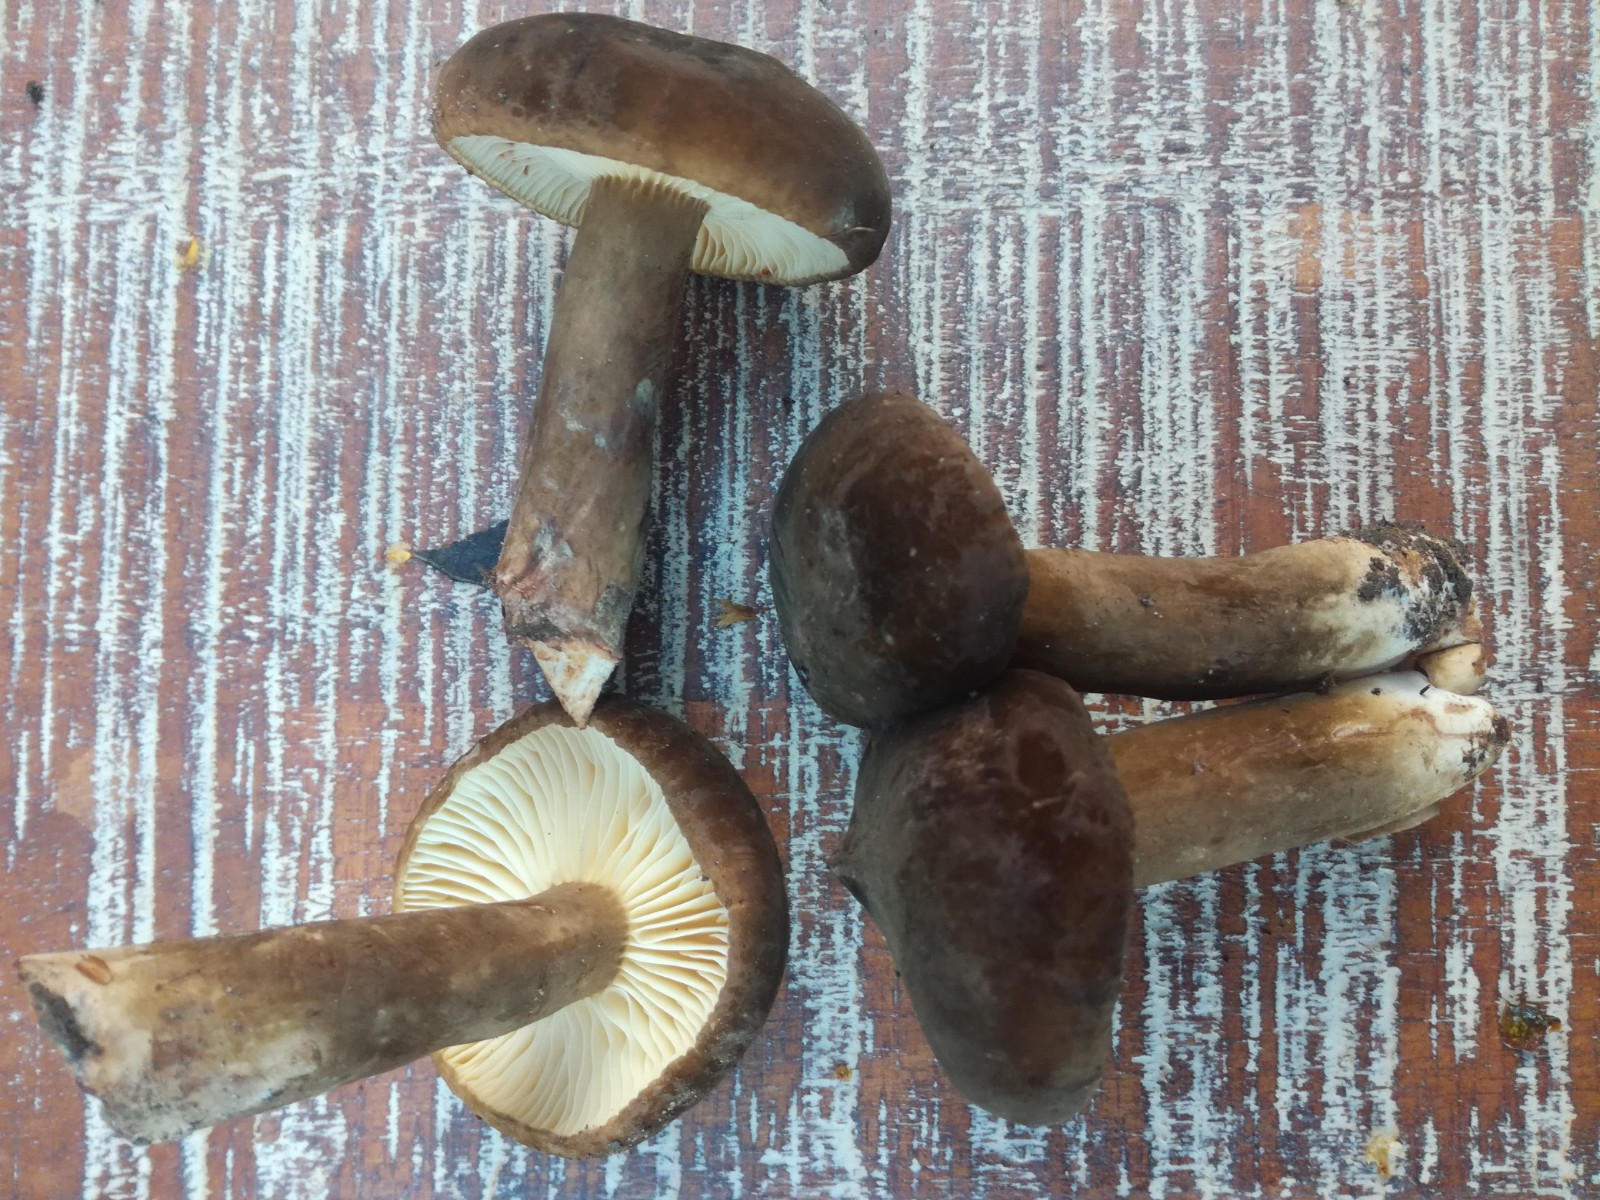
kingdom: Fungi
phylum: Basidiomycota
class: Agaricomycetes
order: Russulales
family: Russulaceae
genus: Lactarius
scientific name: Lactarius
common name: mælkehat
